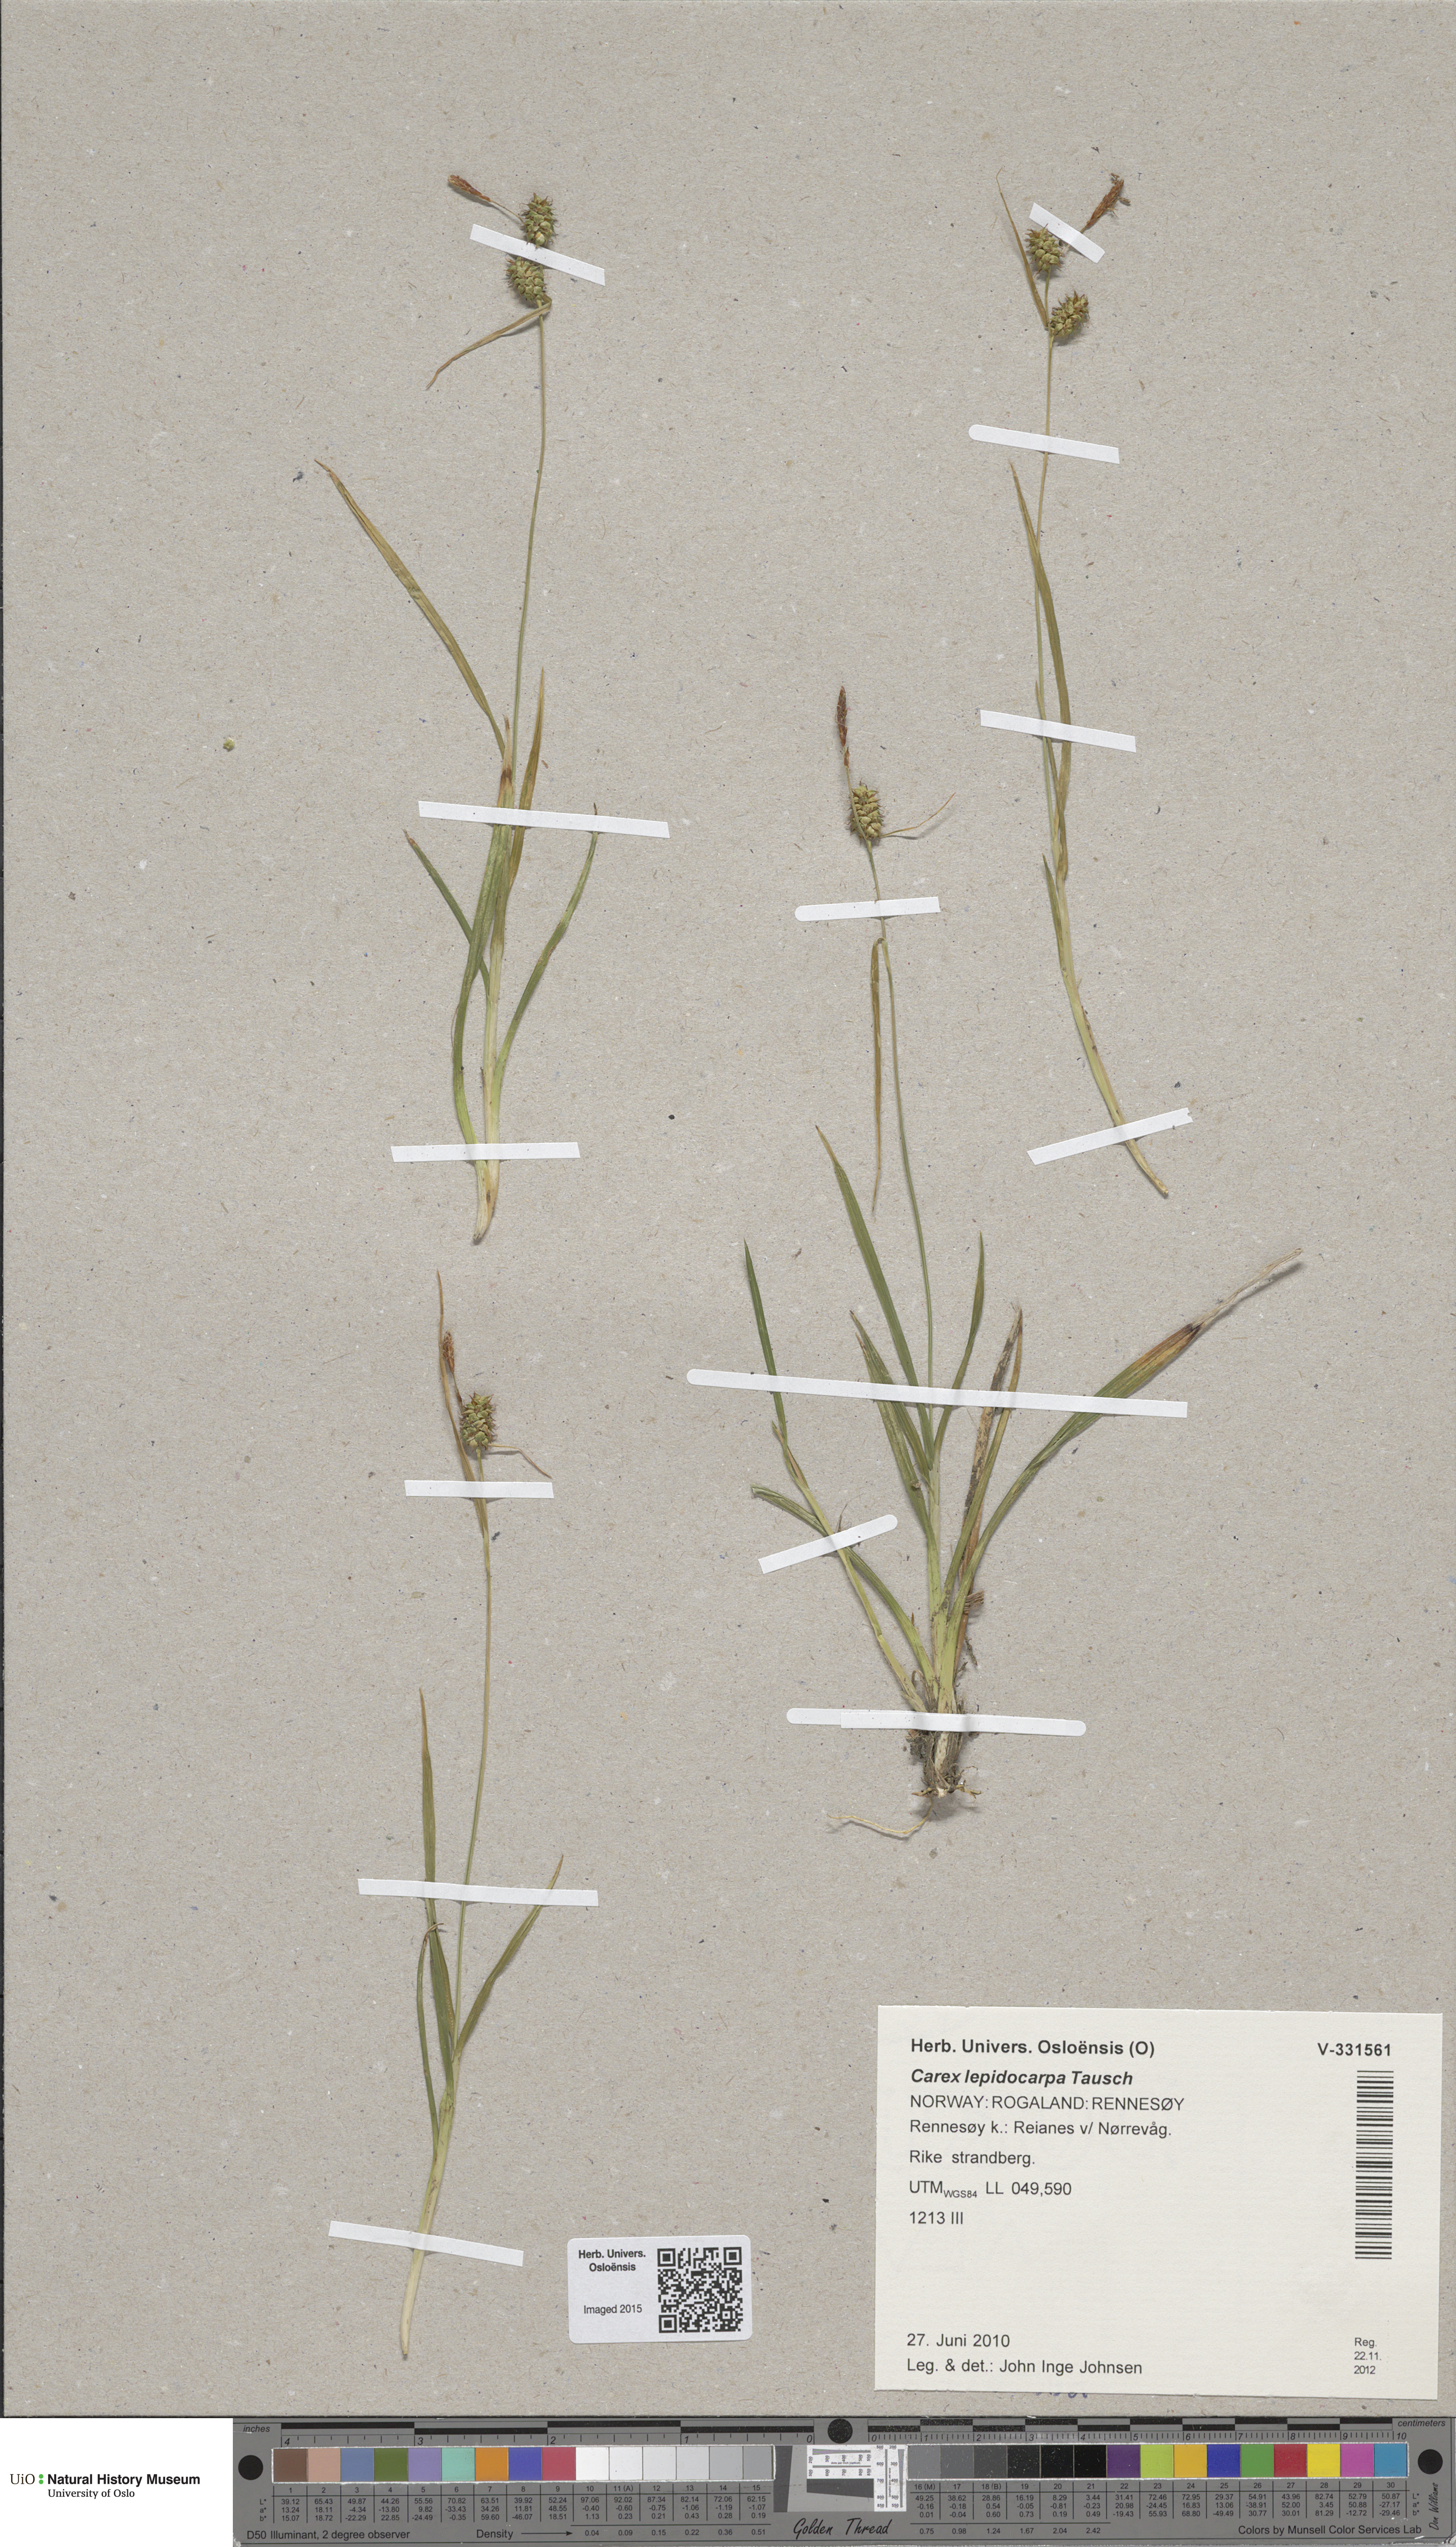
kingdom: Plantae
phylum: Tracheophyta
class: Liliopsida
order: Poales
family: Cyperaceae
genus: Carex
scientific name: Carex lepidocarpa
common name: Long-stalked yellow-sedge
